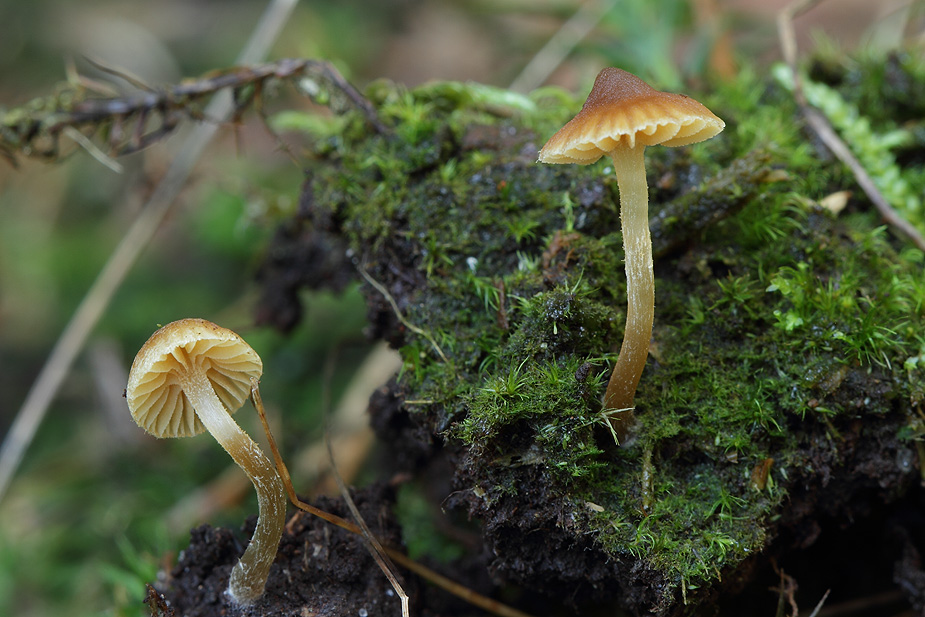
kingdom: Fungi
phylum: Basidiomycota
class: Agaricomycetes
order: Agaricales
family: Hymenogastraceae
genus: Galerina
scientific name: Galerina allospora
